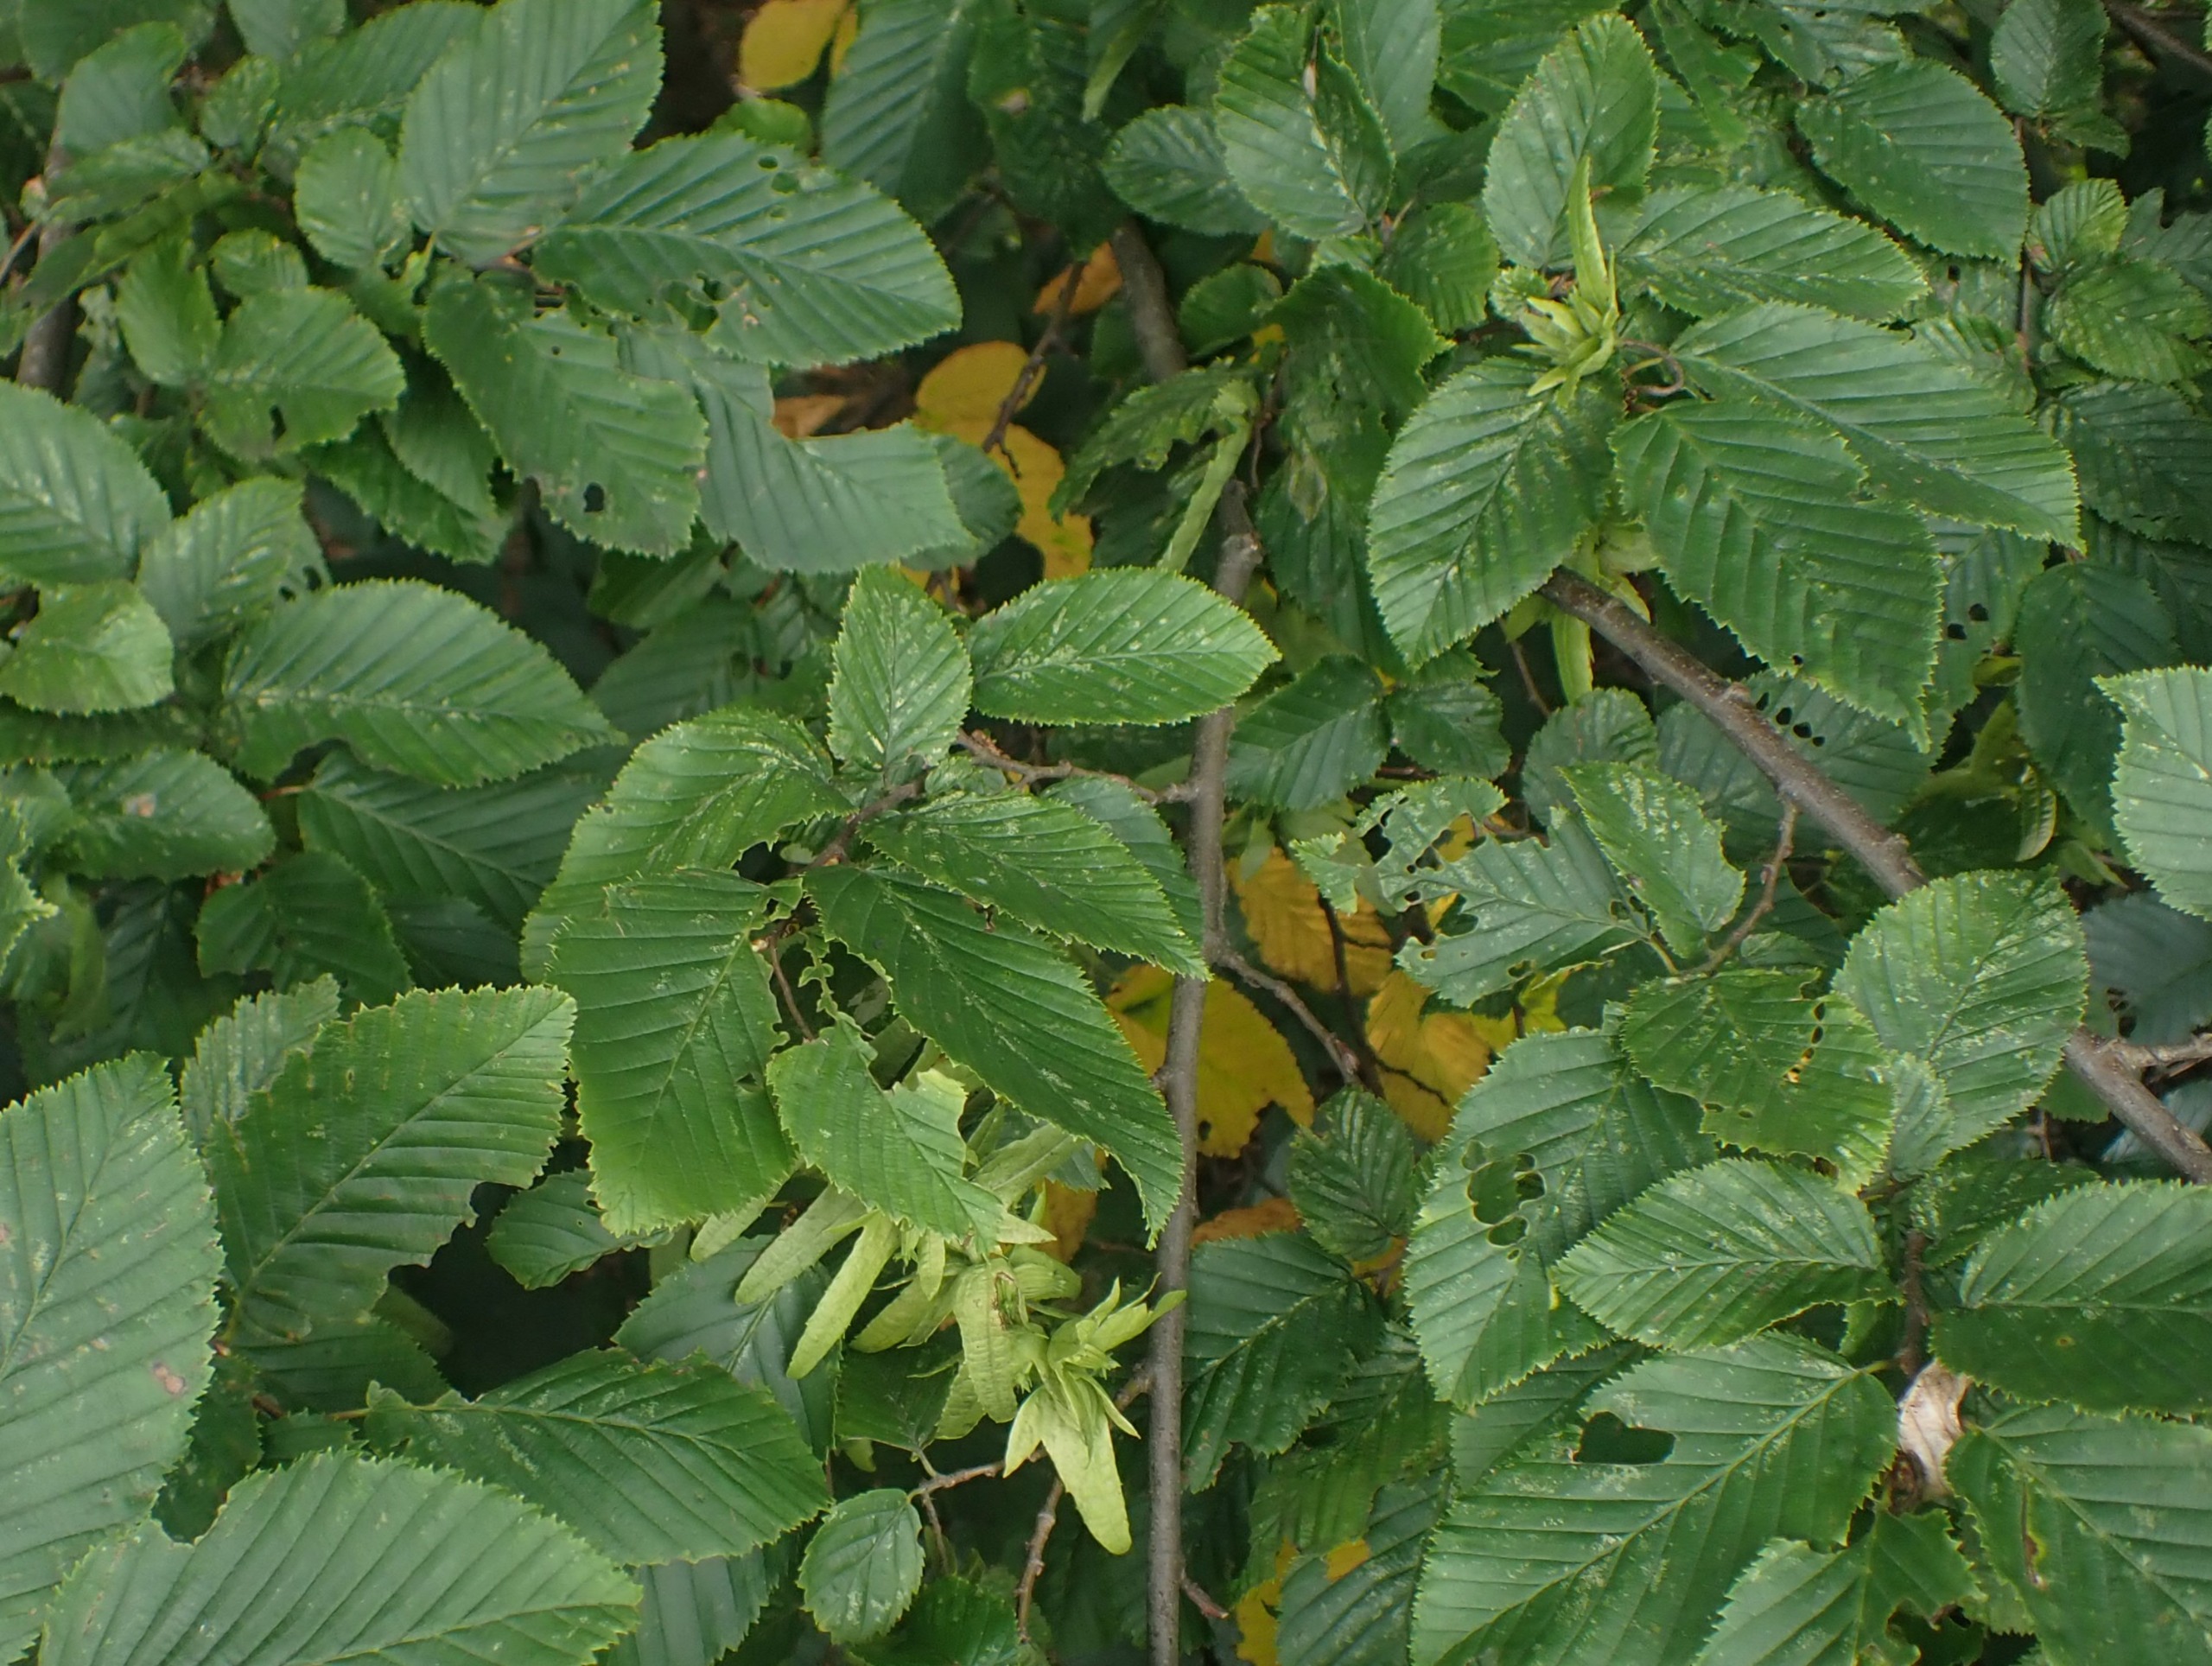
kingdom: Plantae
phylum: Tracheophyta
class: Magnoliopsida
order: Fagales
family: Betulaceae
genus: Carpinus
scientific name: Carpinus betulus
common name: Avnbøg
